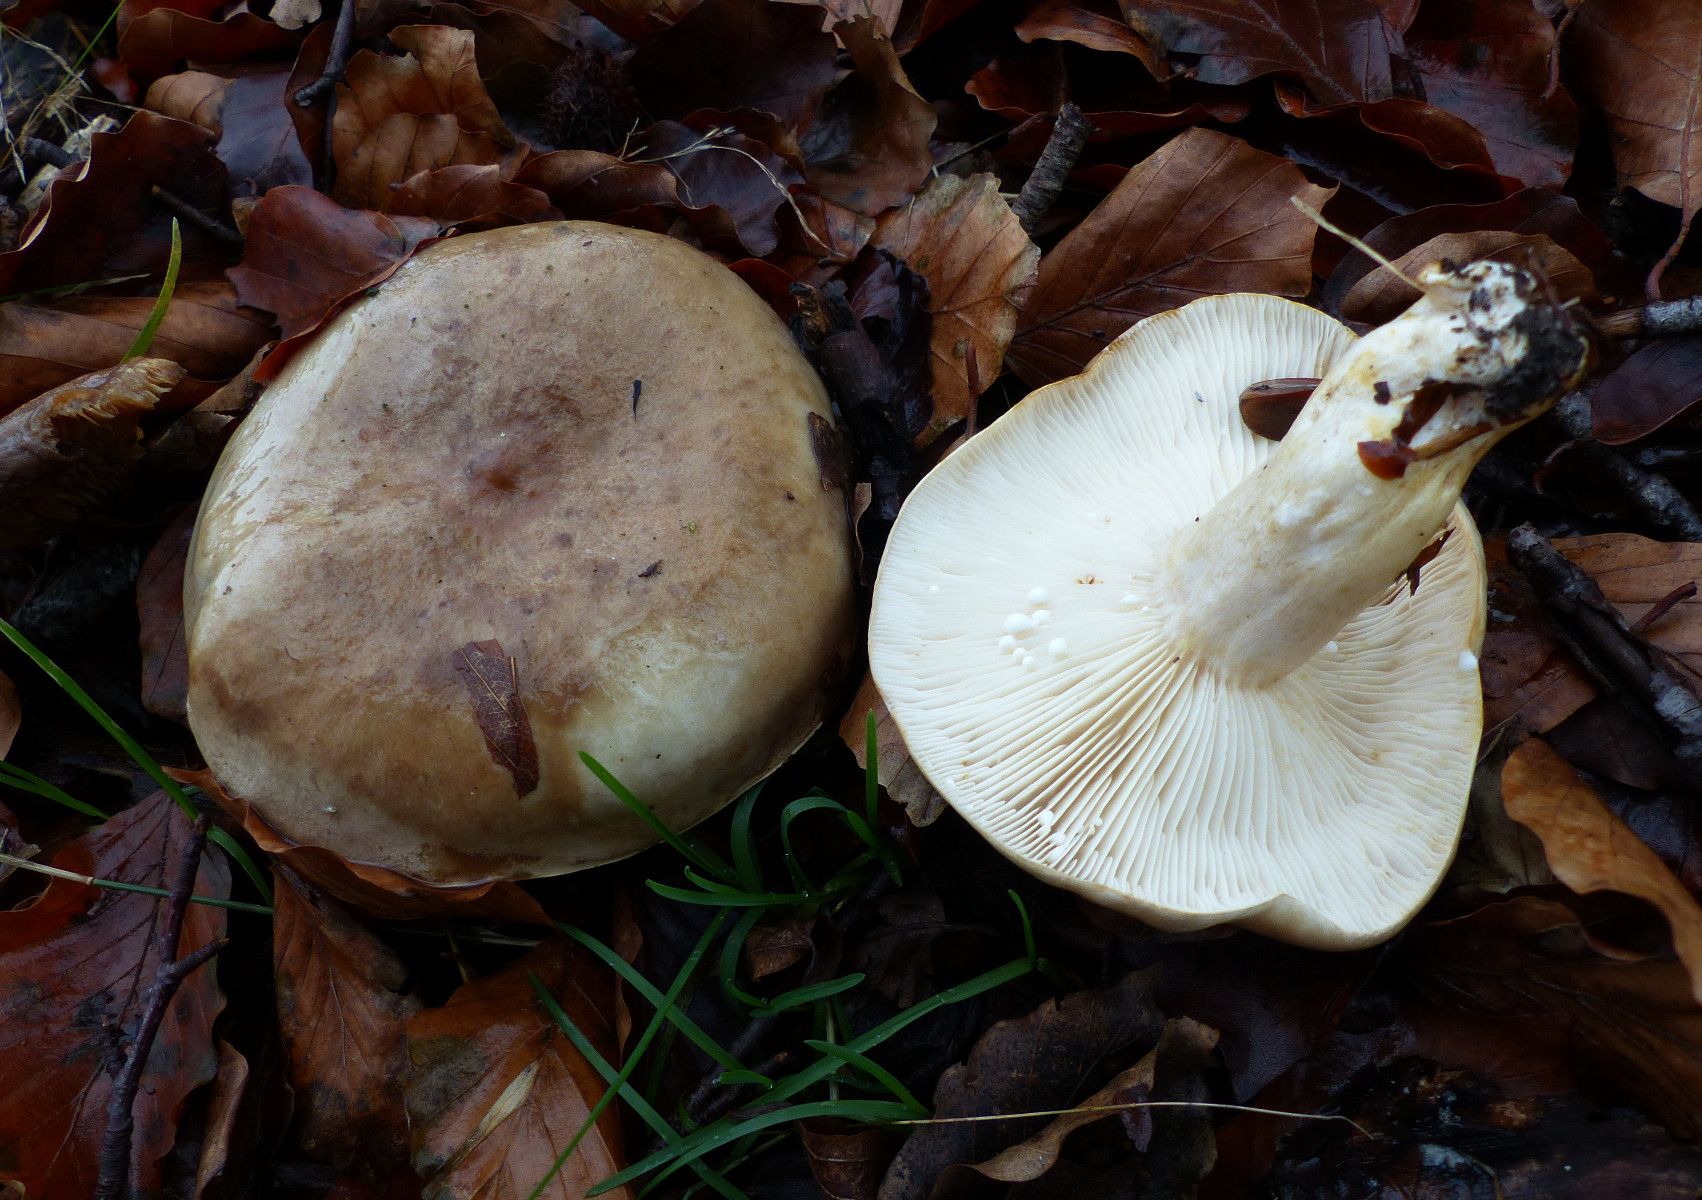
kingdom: Fungi
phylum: Basidiomycota
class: Agaricomycetes
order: Russulales
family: Russulaceae
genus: Lactarius
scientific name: Lactarius pallidus
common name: bleg mælkehat
